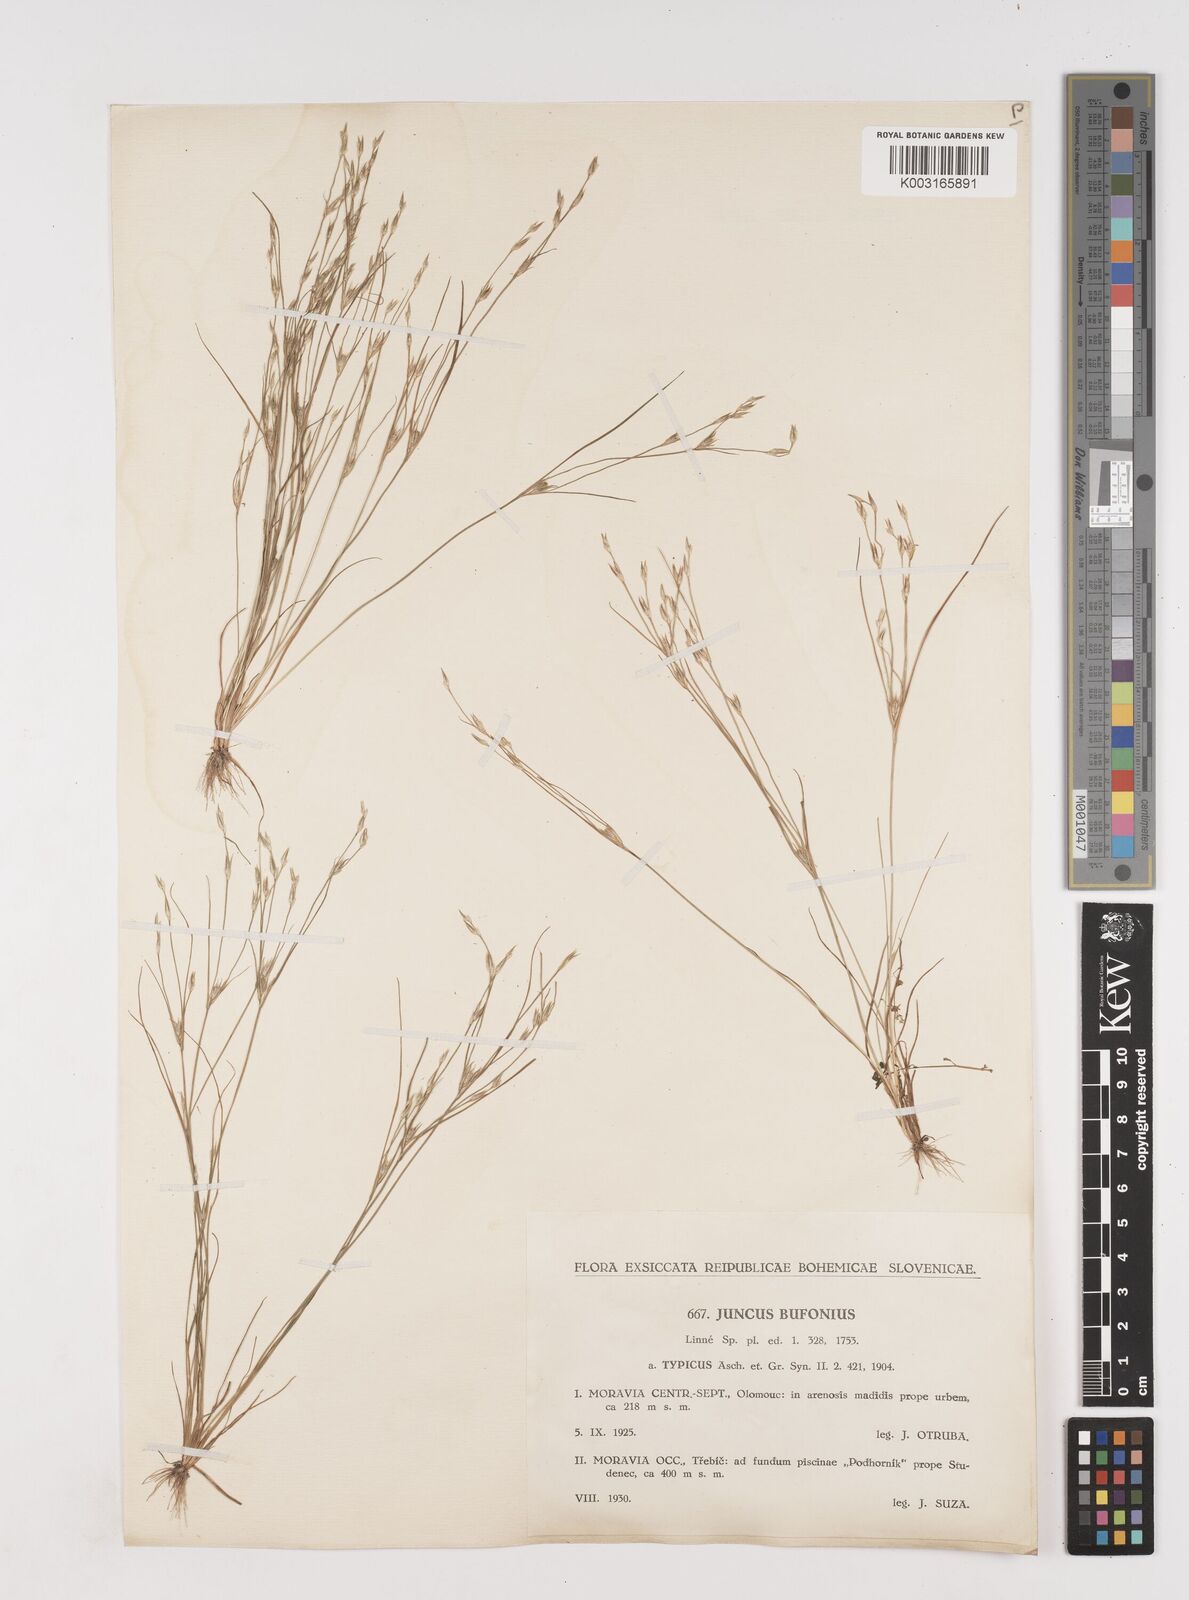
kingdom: Plantae
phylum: Tracheophyta
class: Liliopsida
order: Poales
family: Juncaceae
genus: Juncus
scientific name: Juncus bufonius
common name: Toad rush
